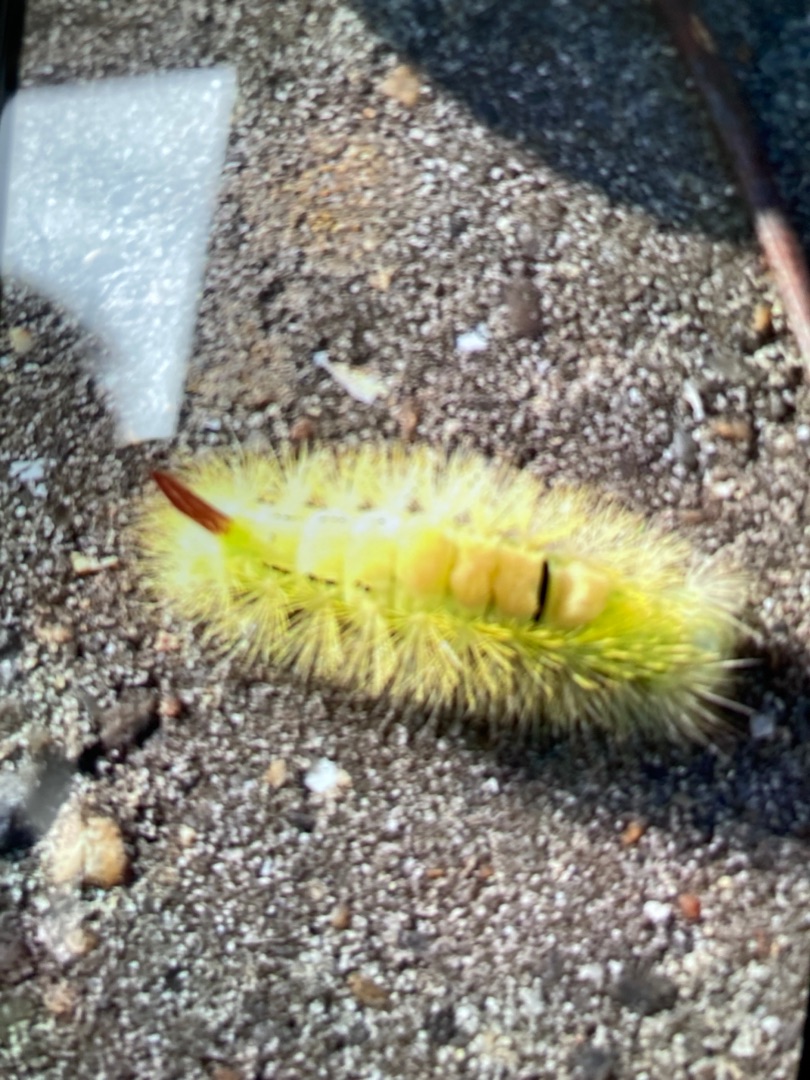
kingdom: Animalia
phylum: Arthropoda
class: Insecta
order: Lepidoptera
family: Erebidae
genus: Calliteara
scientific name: Calliteara pudibunda
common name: Bøgenonne
